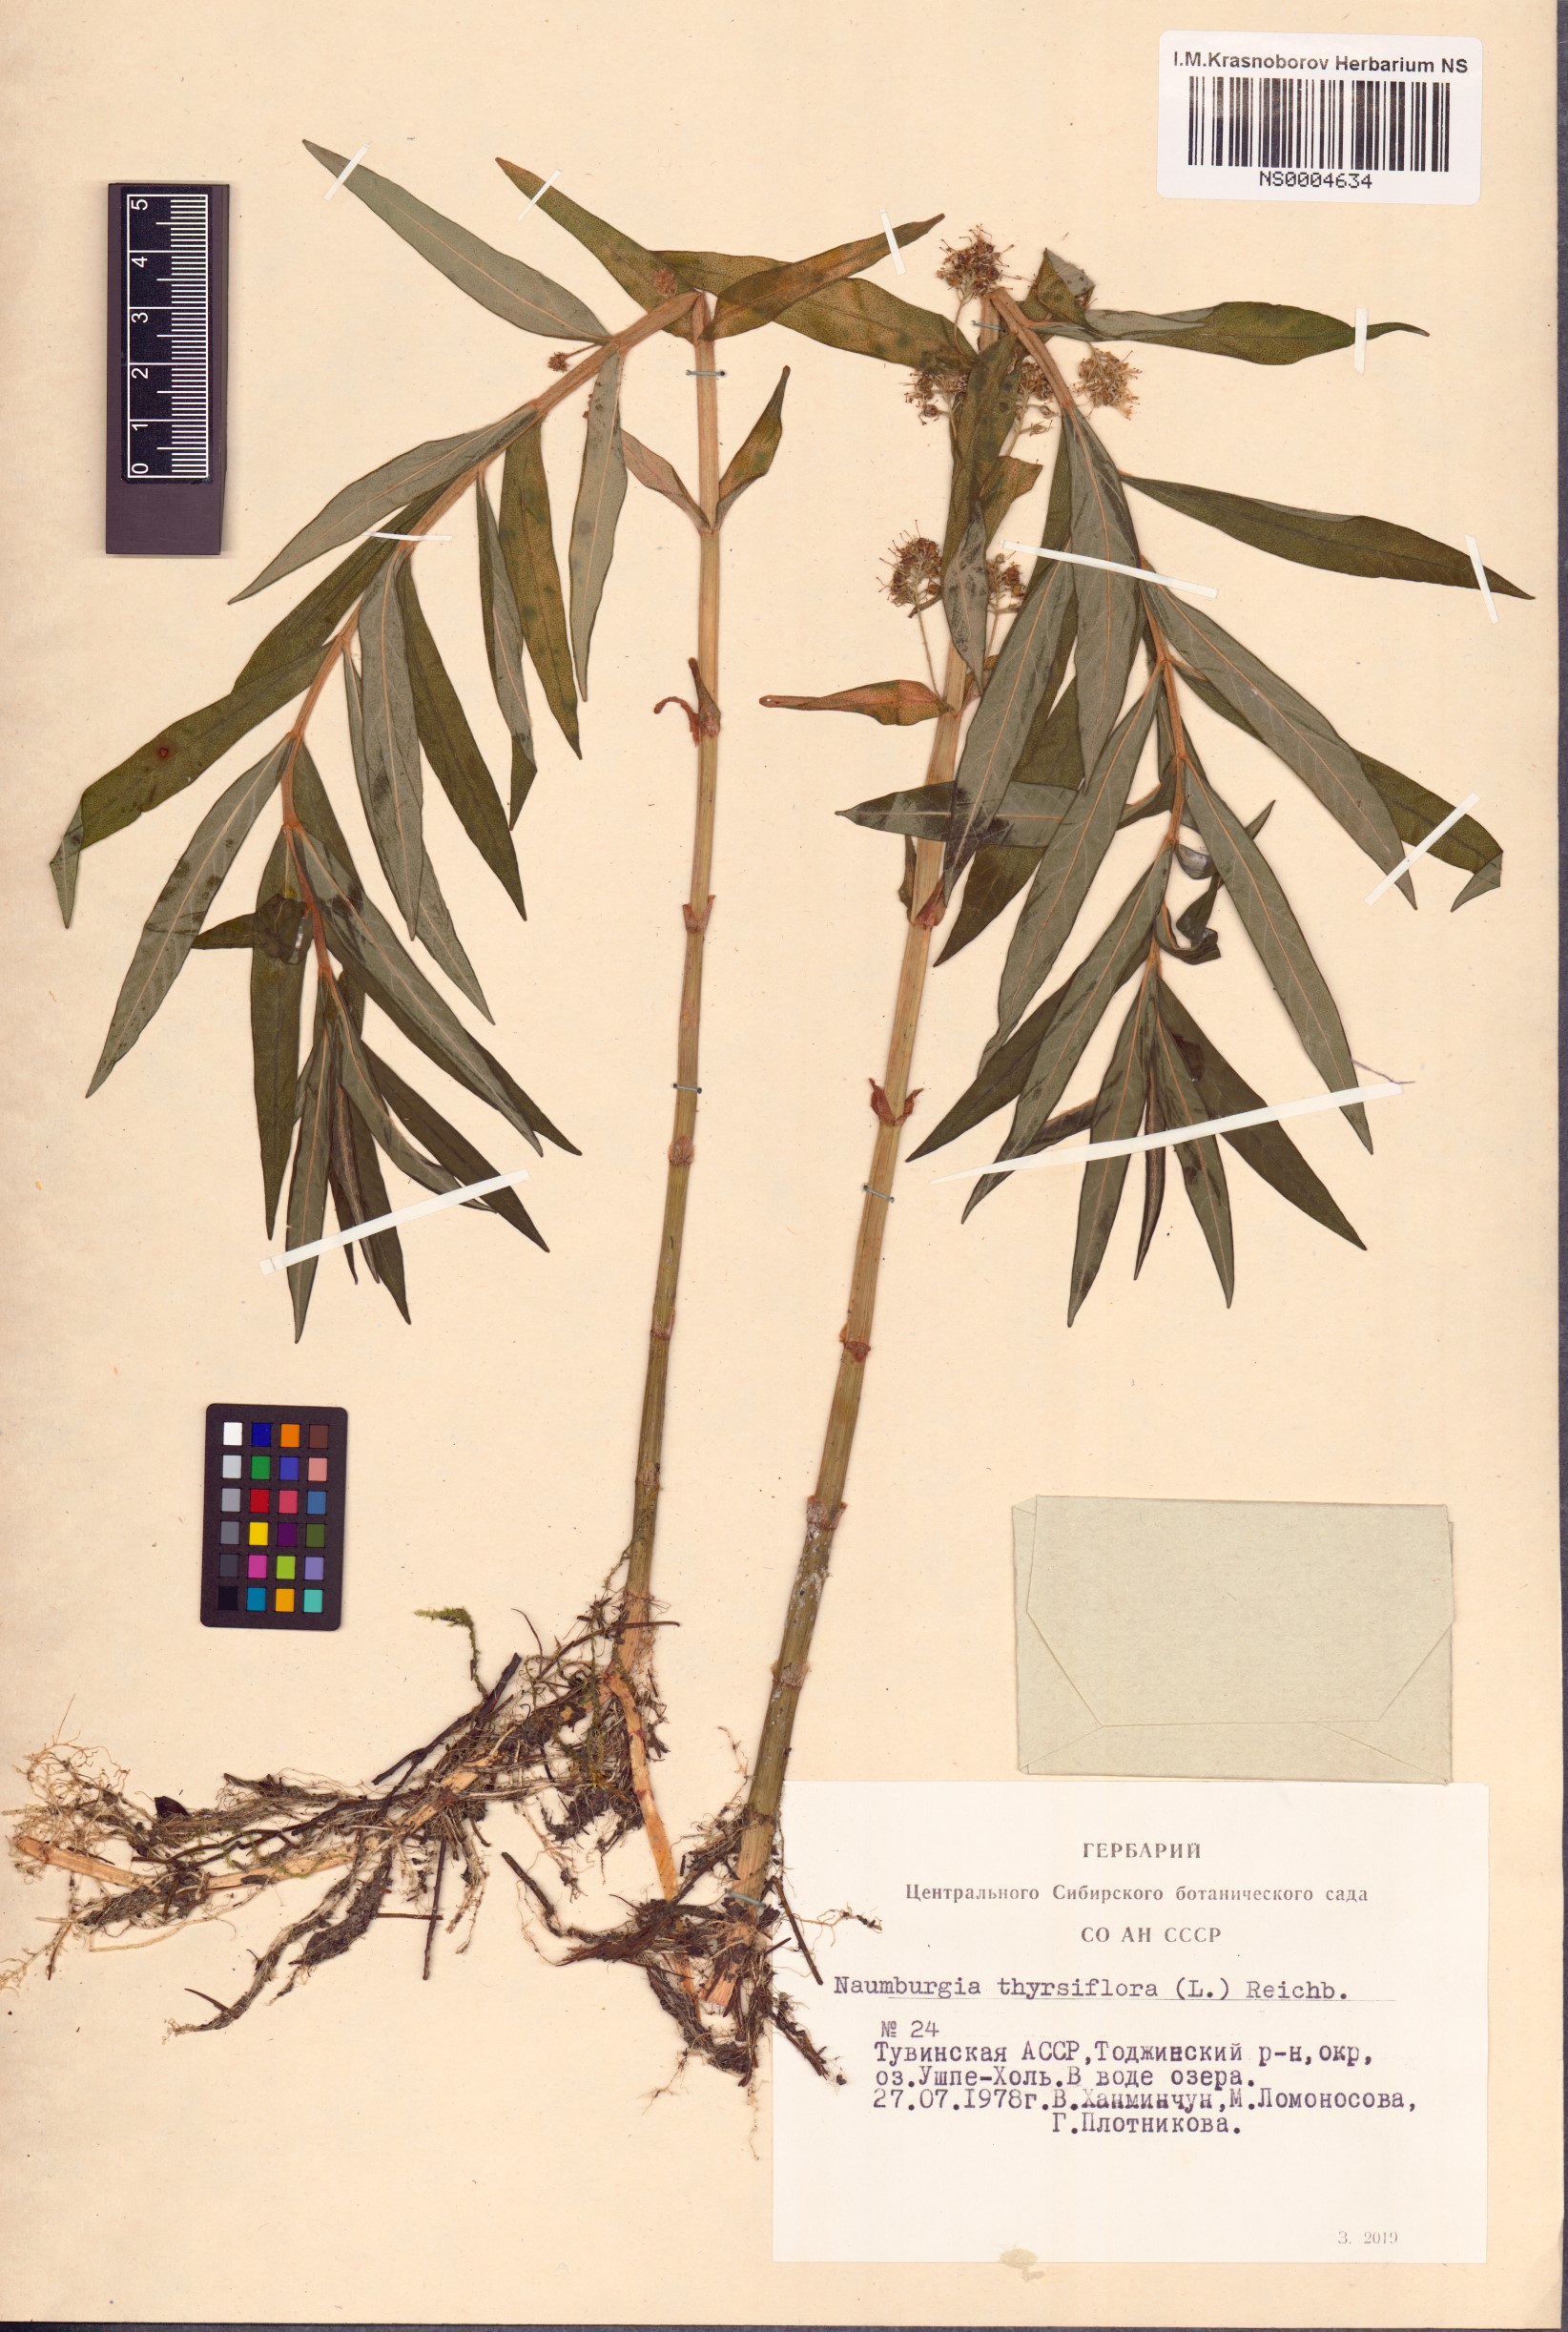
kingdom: Plantae
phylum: Tracheophyta
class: Magnoliopsida
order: Ericales
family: Primulaceae
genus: Lysimachia
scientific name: Lysimachia thyrsiflora
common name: Tufted loosestrife
